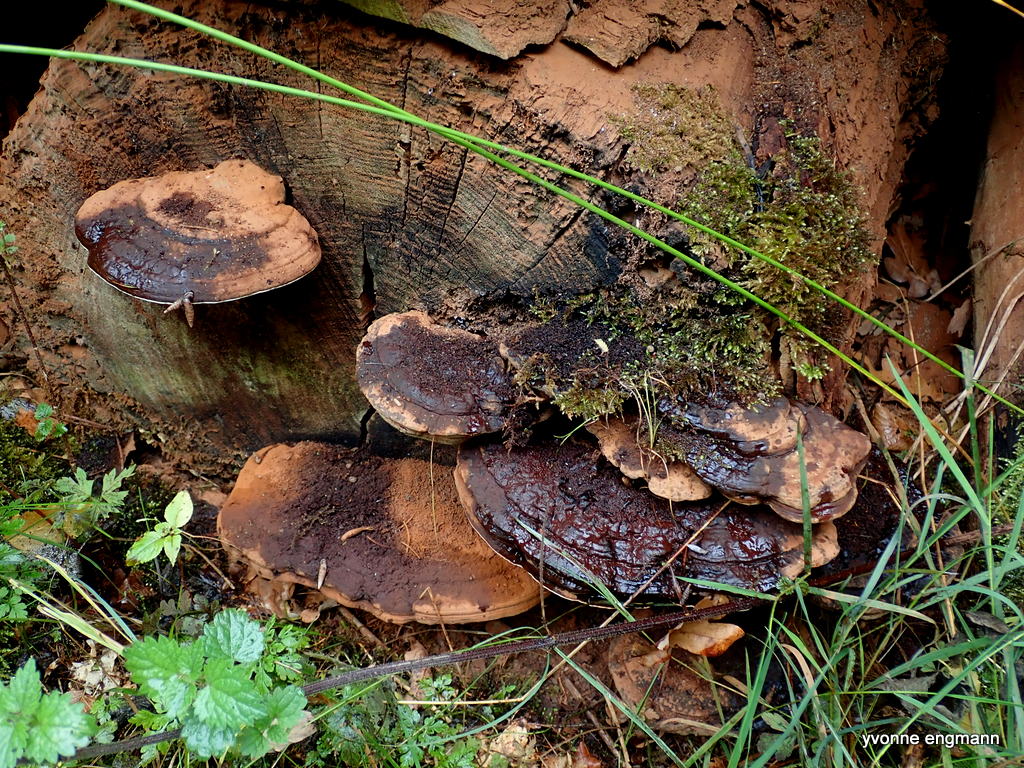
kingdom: Fungi
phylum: Basidiomycota
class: Agaricomycetes
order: Polyporales
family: Polyporaceae
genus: Ganoderma
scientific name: Ganoderma applanatum
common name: flad lakporesvamp
